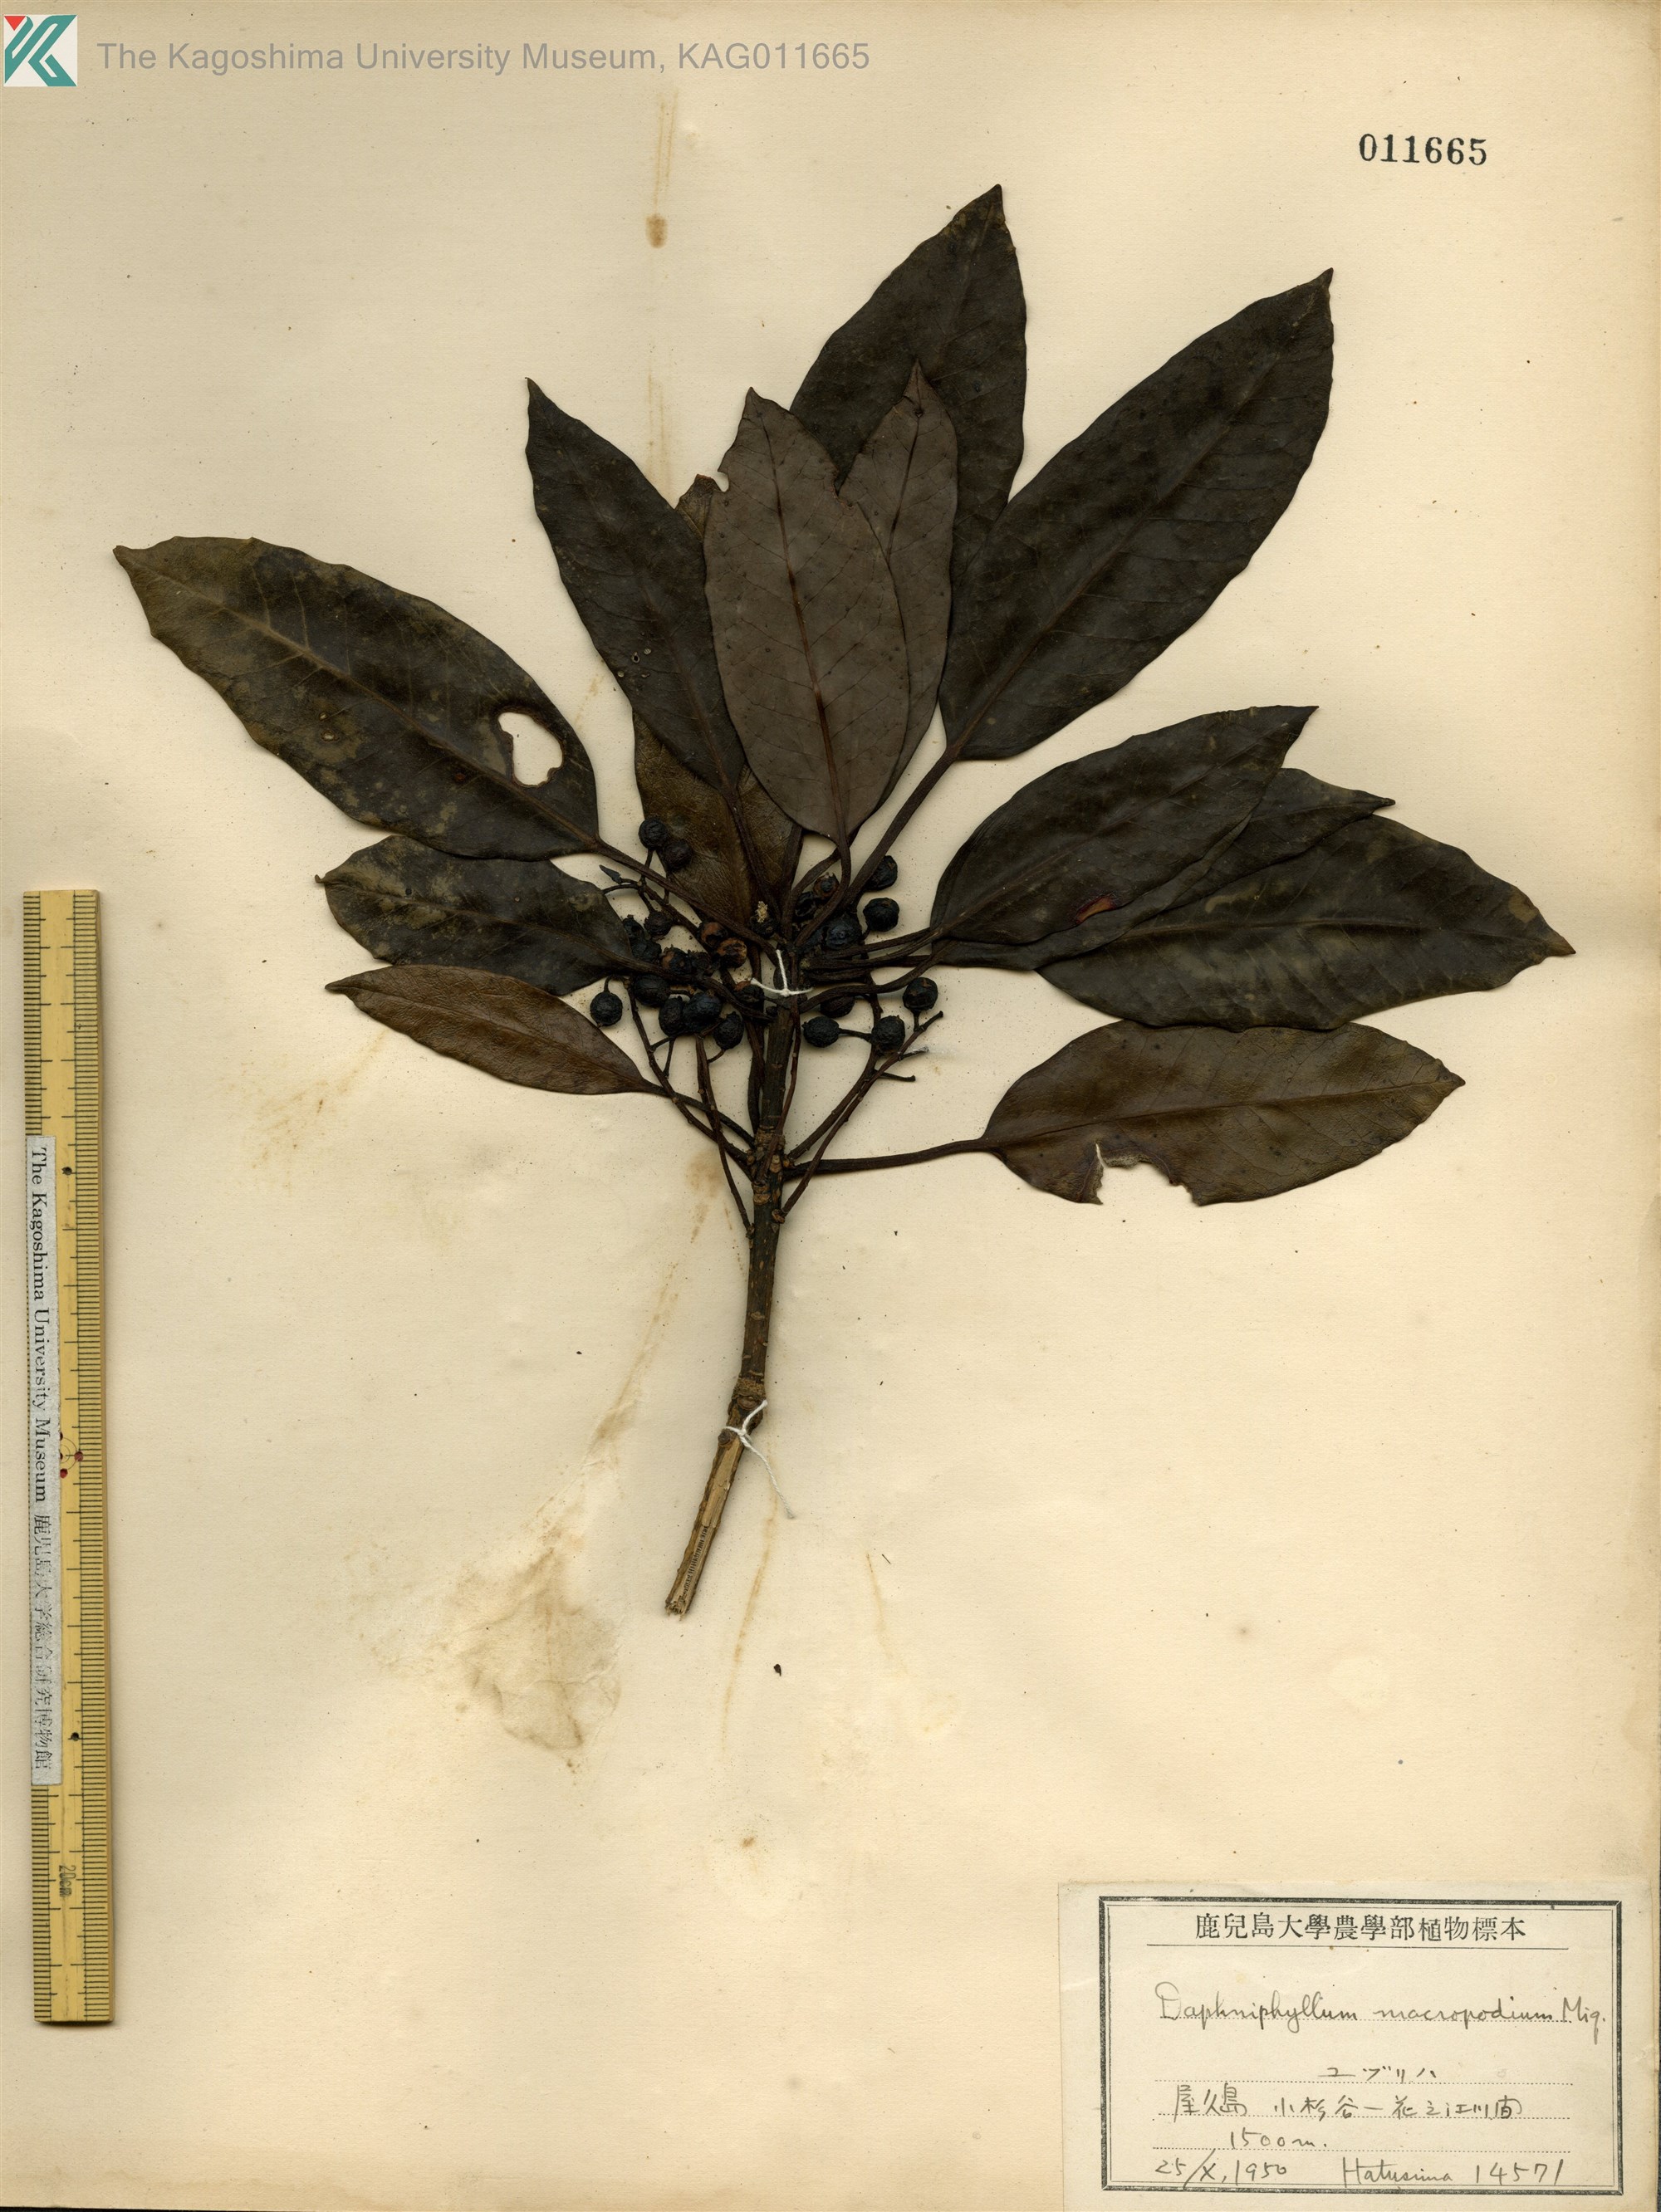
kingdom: Plantae
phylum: Tracheophyta
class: Magnoliopsida
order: Saxifragales
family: Daphniphyllaceae
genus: Daphniphyllum
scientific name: Daphniphyllum macropodum
